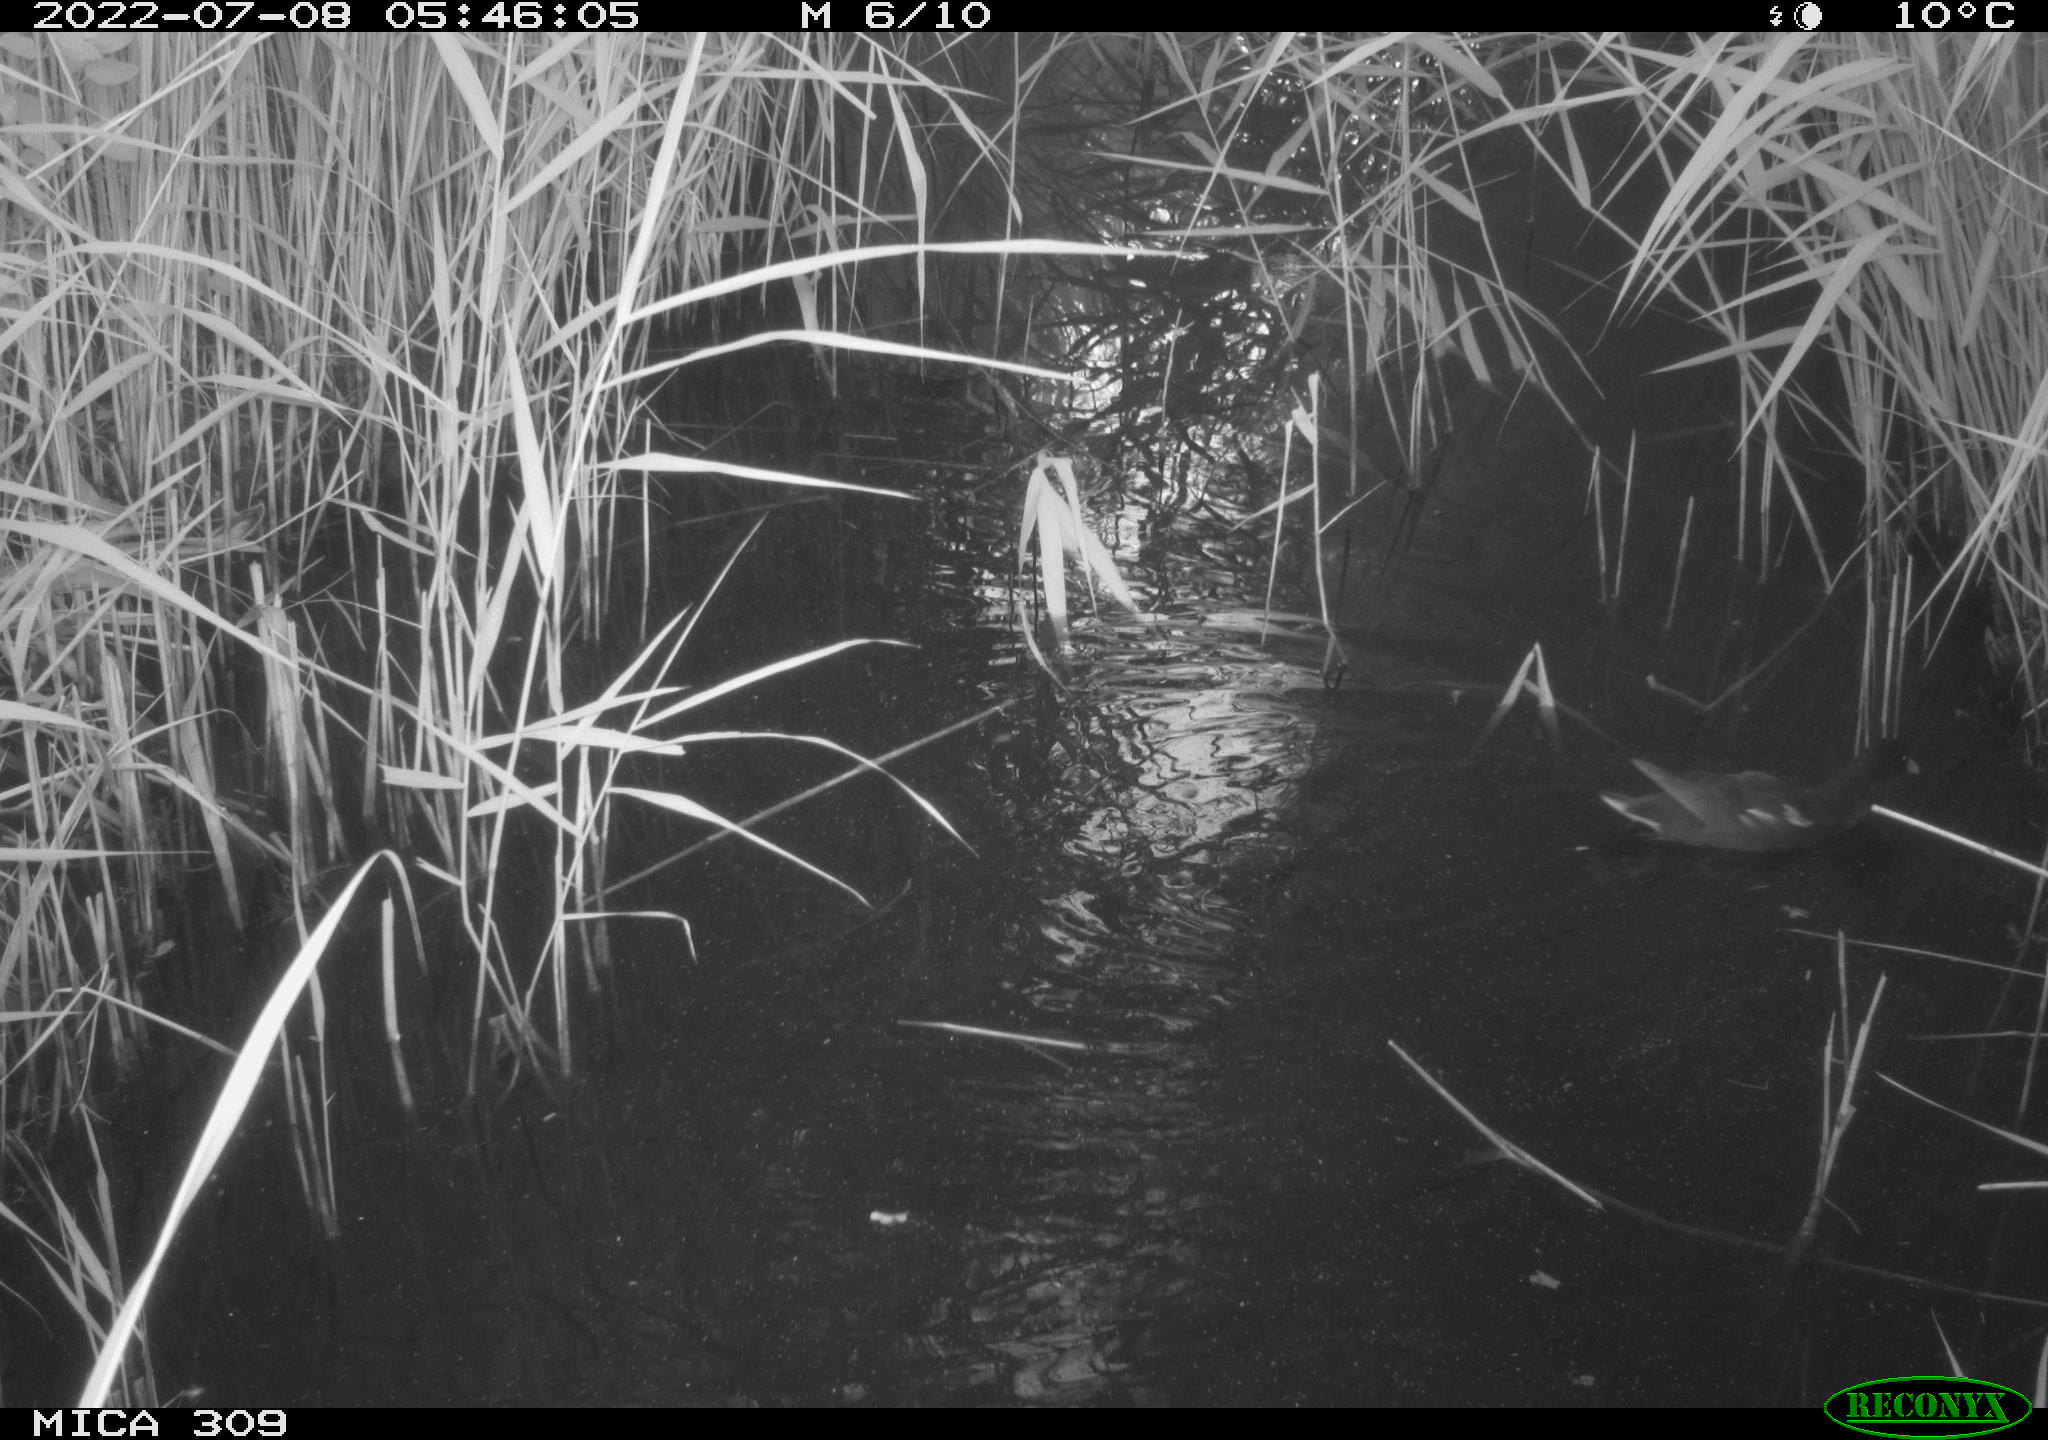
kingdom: Animalia
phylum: Chordata
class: Aves
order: Gruiformes
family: Rallidae
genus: Gallinula
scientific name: Gallinula chloropus
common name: Common moorhen
